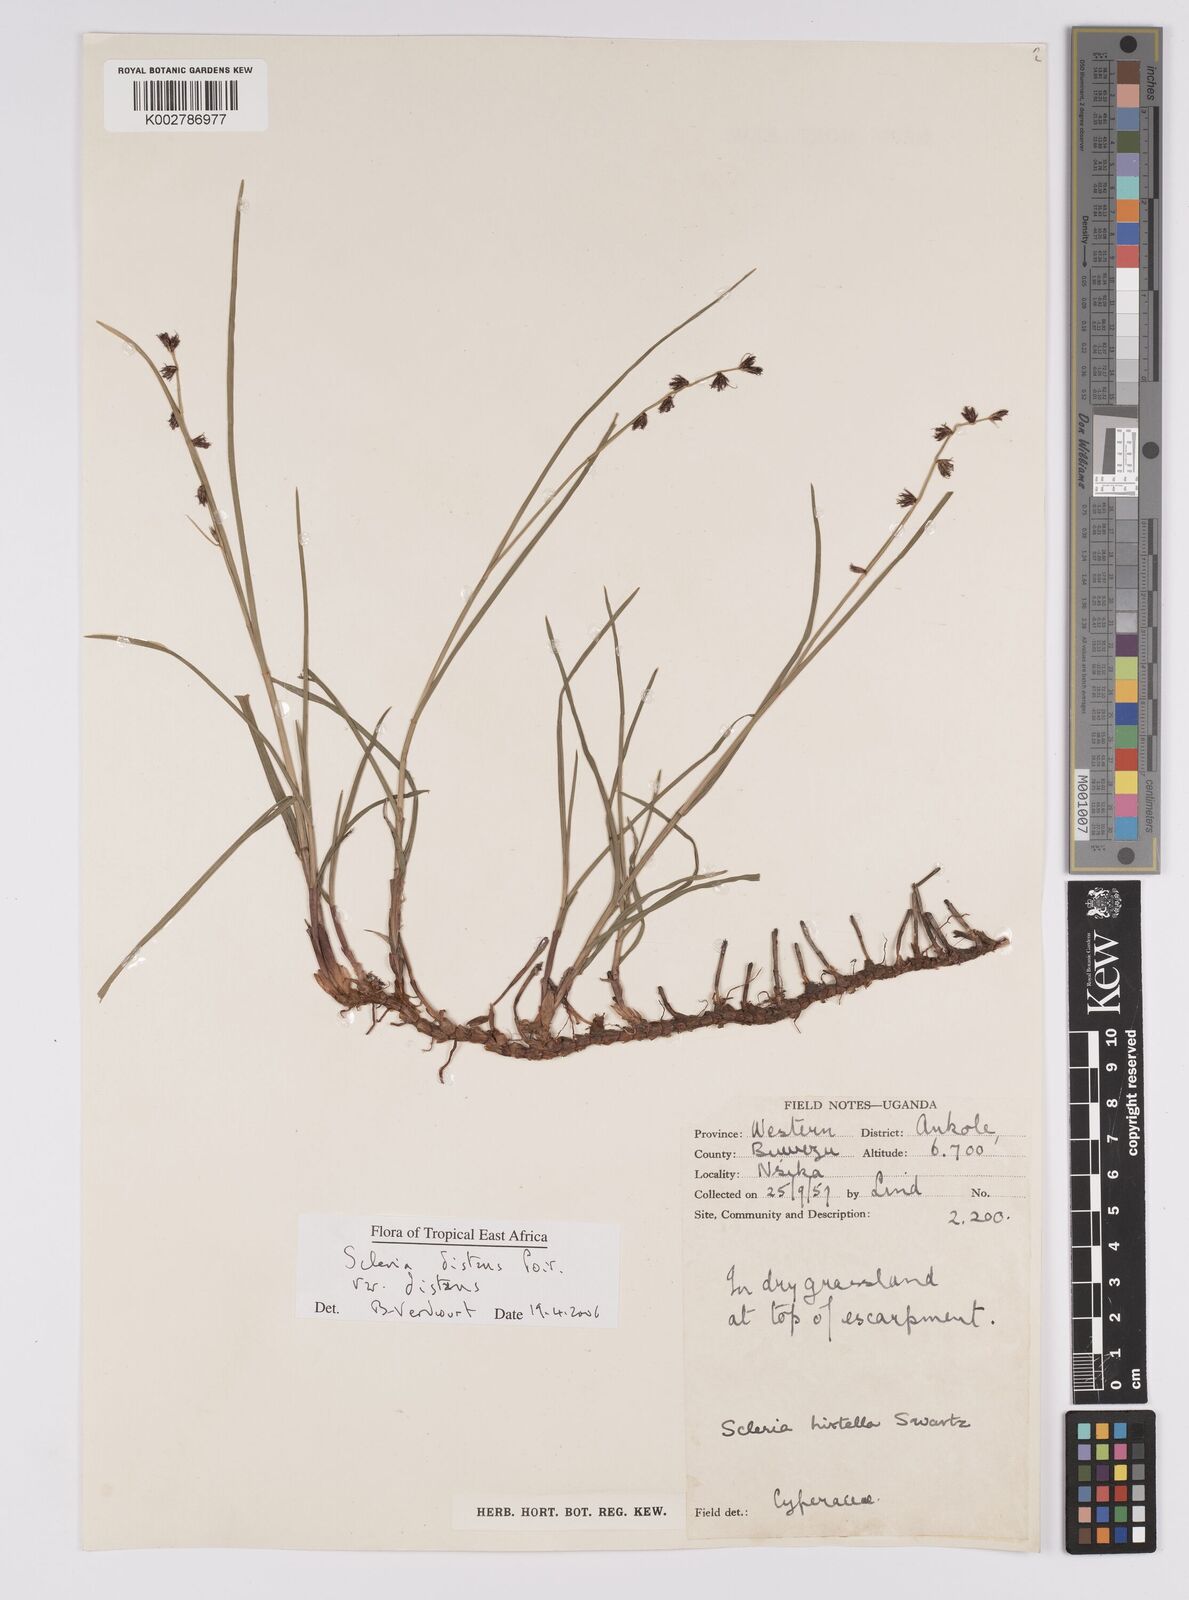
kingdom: Plantae
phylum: Tracheophyta
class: Liliopsida
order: Poales
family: Cyperaceae
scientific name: Cyperaceae
